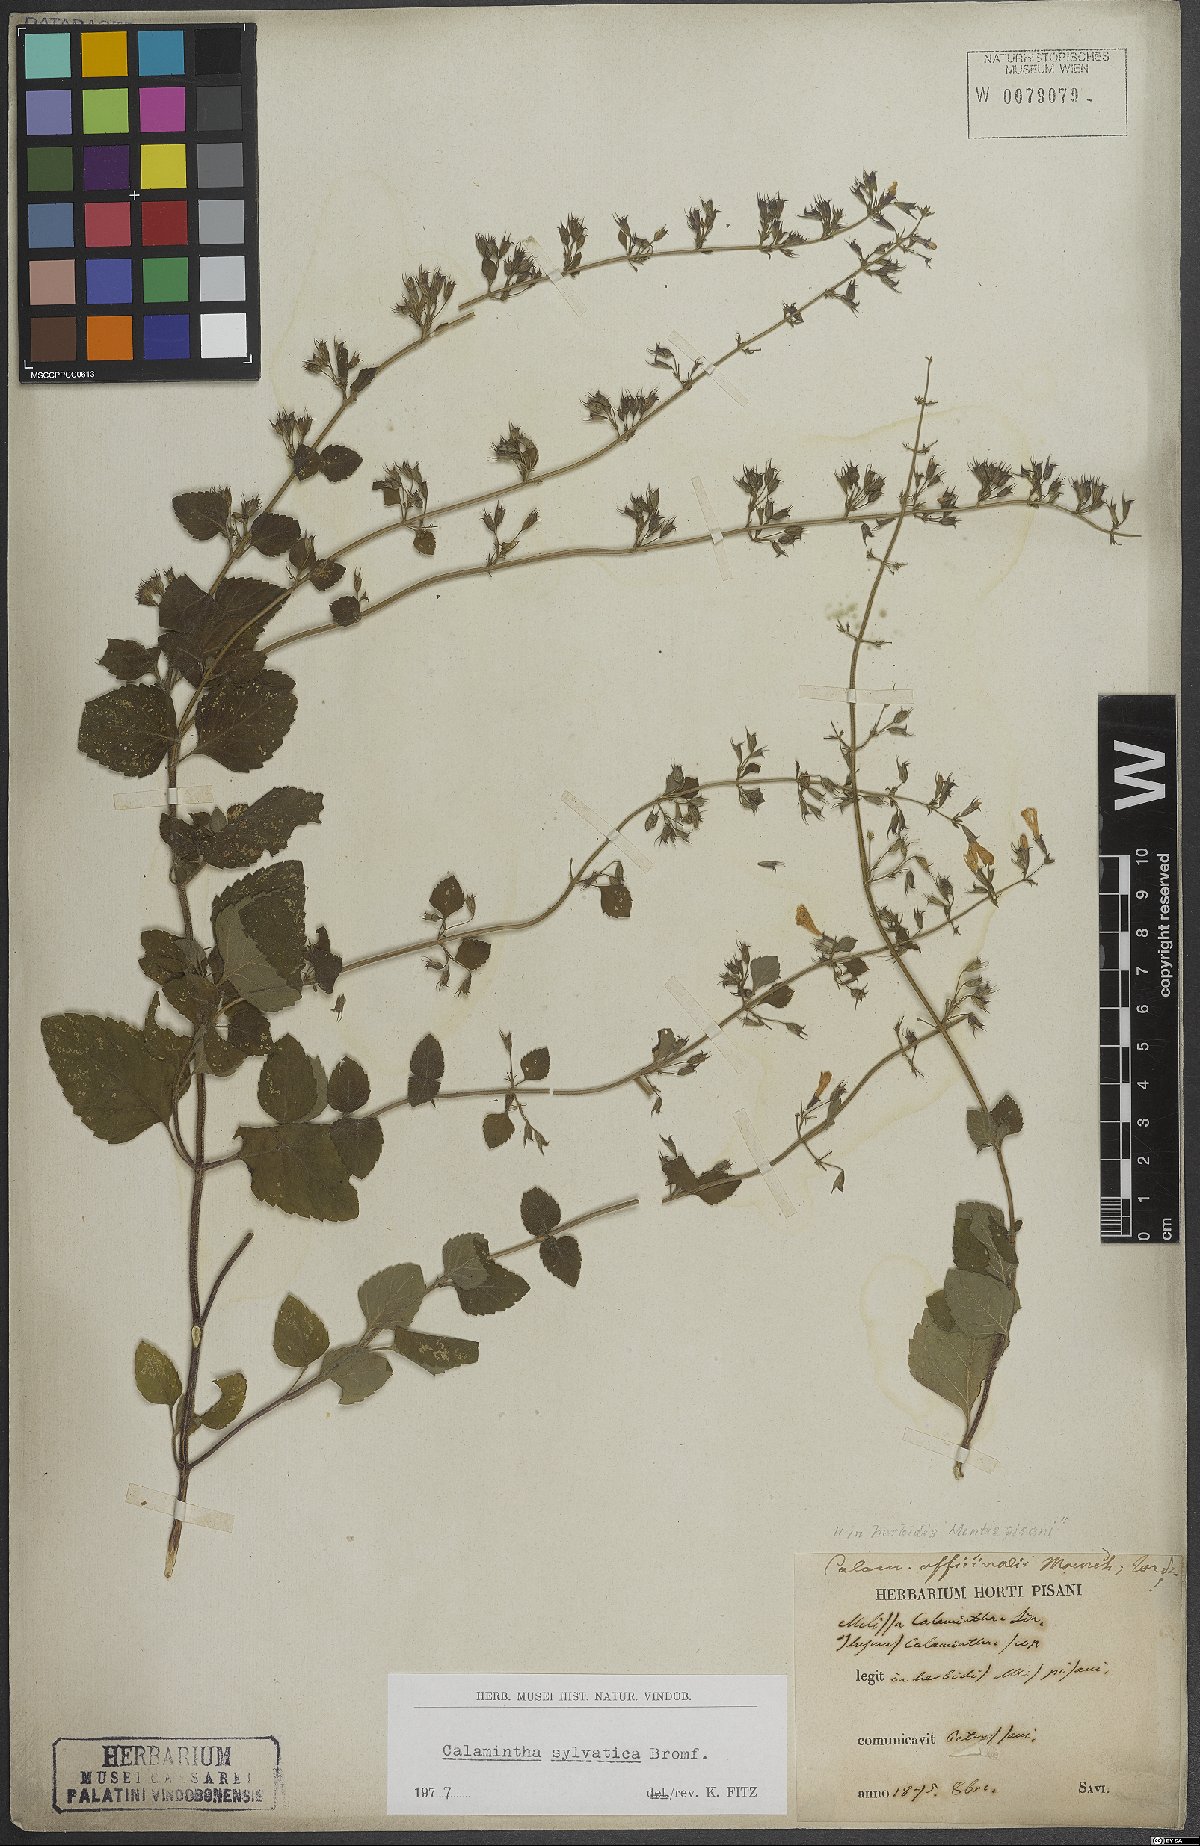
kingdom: Plantae
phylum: Tracheophyta
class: Magnoliopsida
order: Lamiales
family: Lamiaceae
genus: Clinopodium
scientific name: Clinopodium menthifolium
